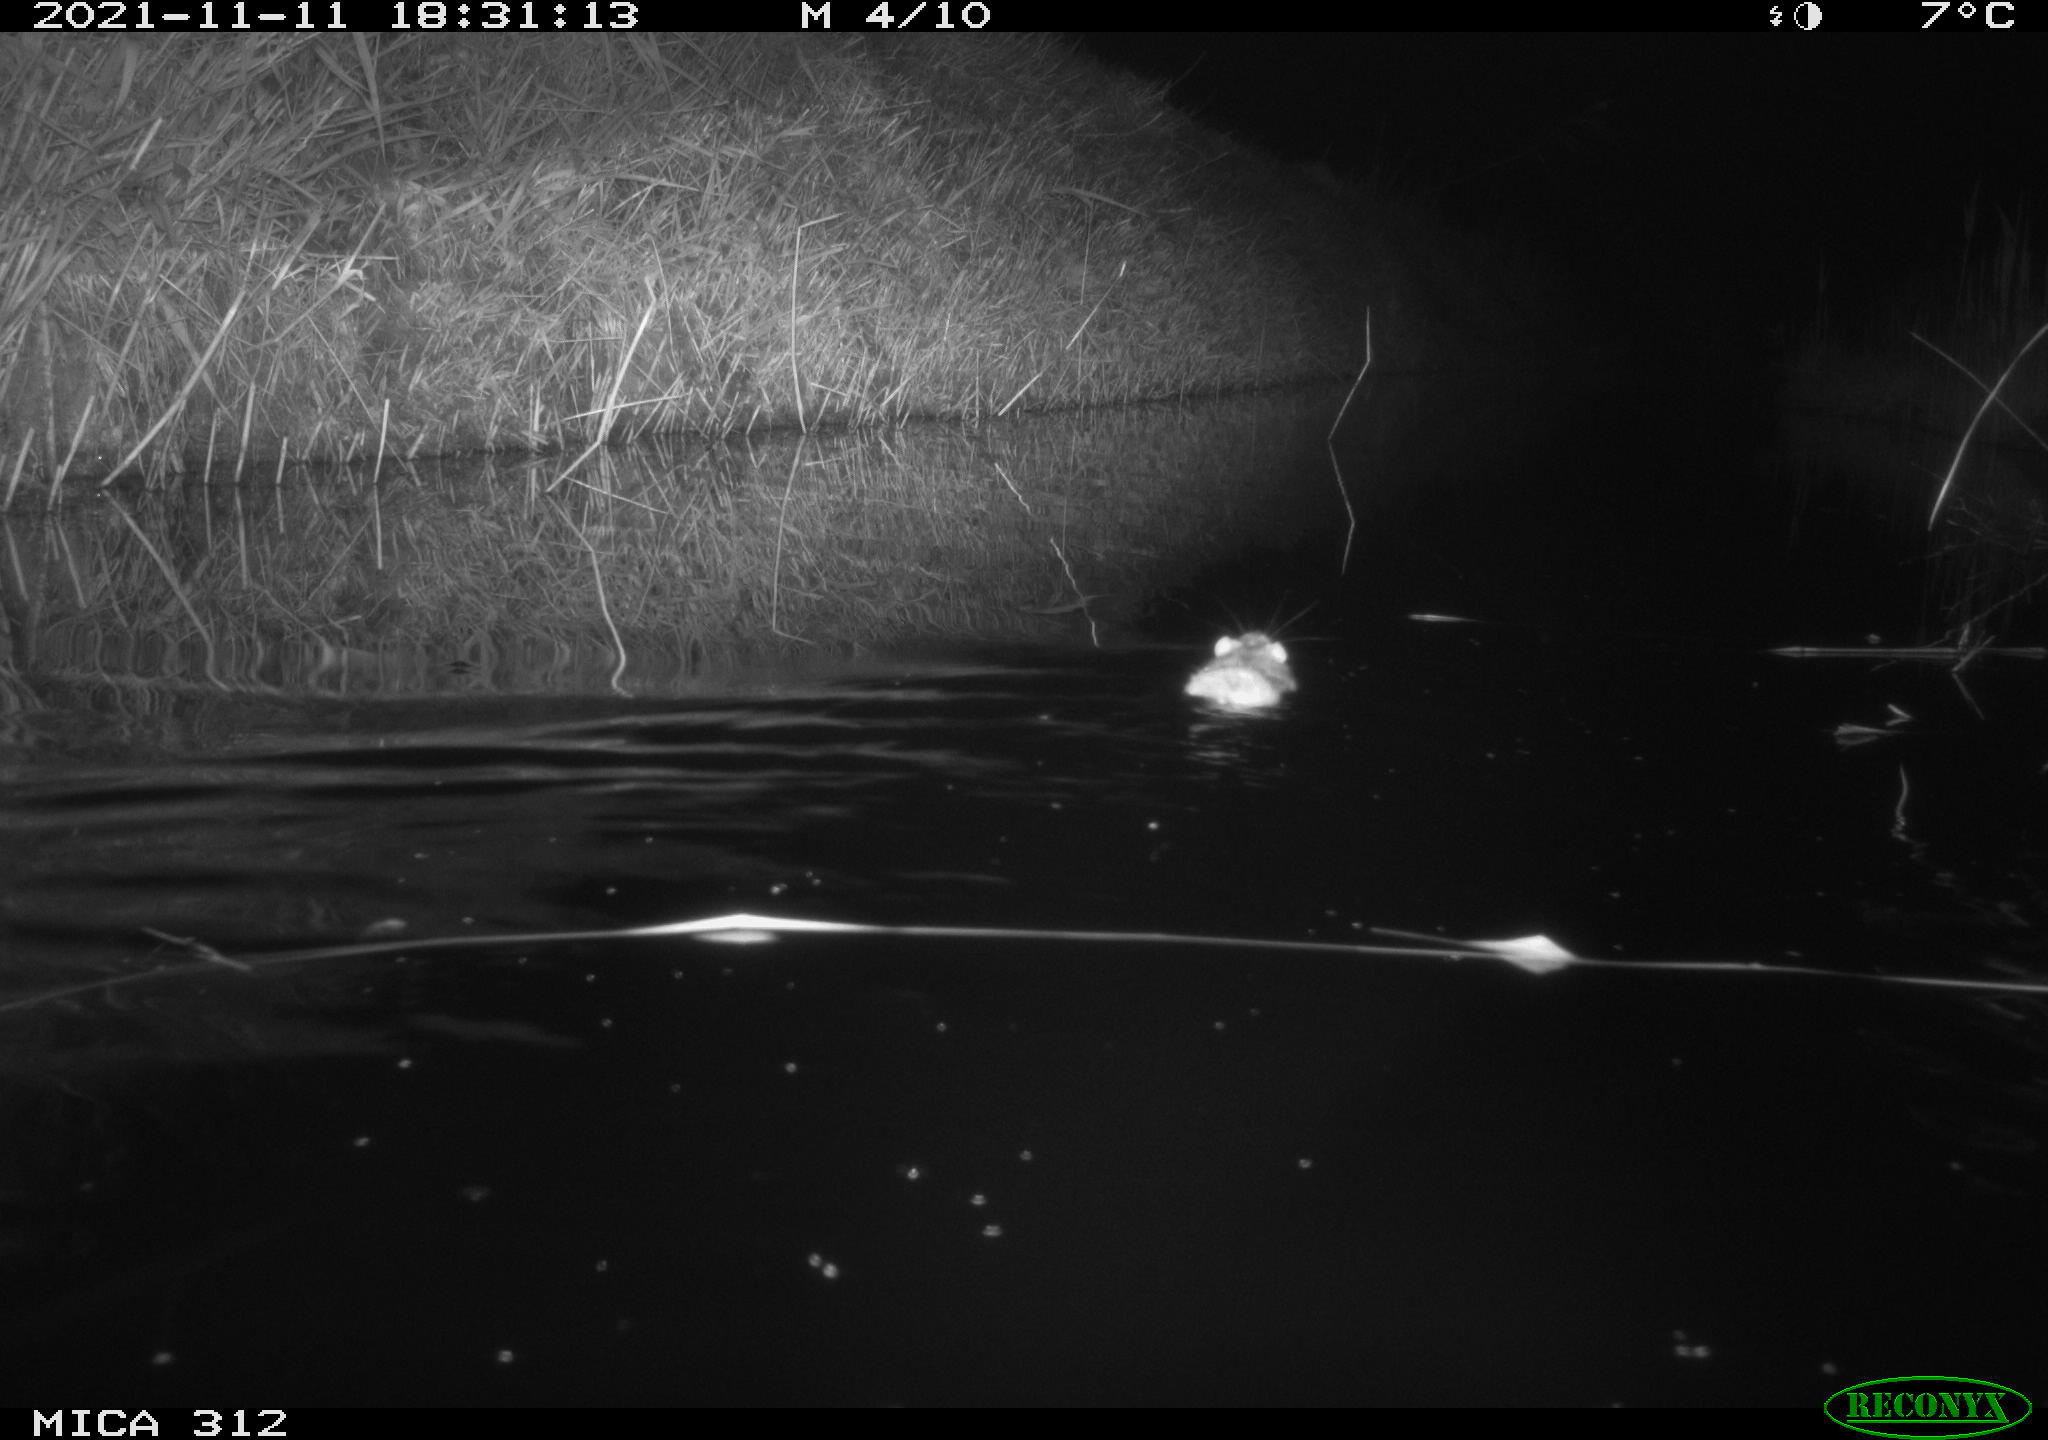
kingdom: Animalia
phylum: Chordata
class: Mammalia
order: Rodentia
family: Cricetidae
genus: Ondatra
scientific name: Ondatra zibethicus
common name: Muskrat
